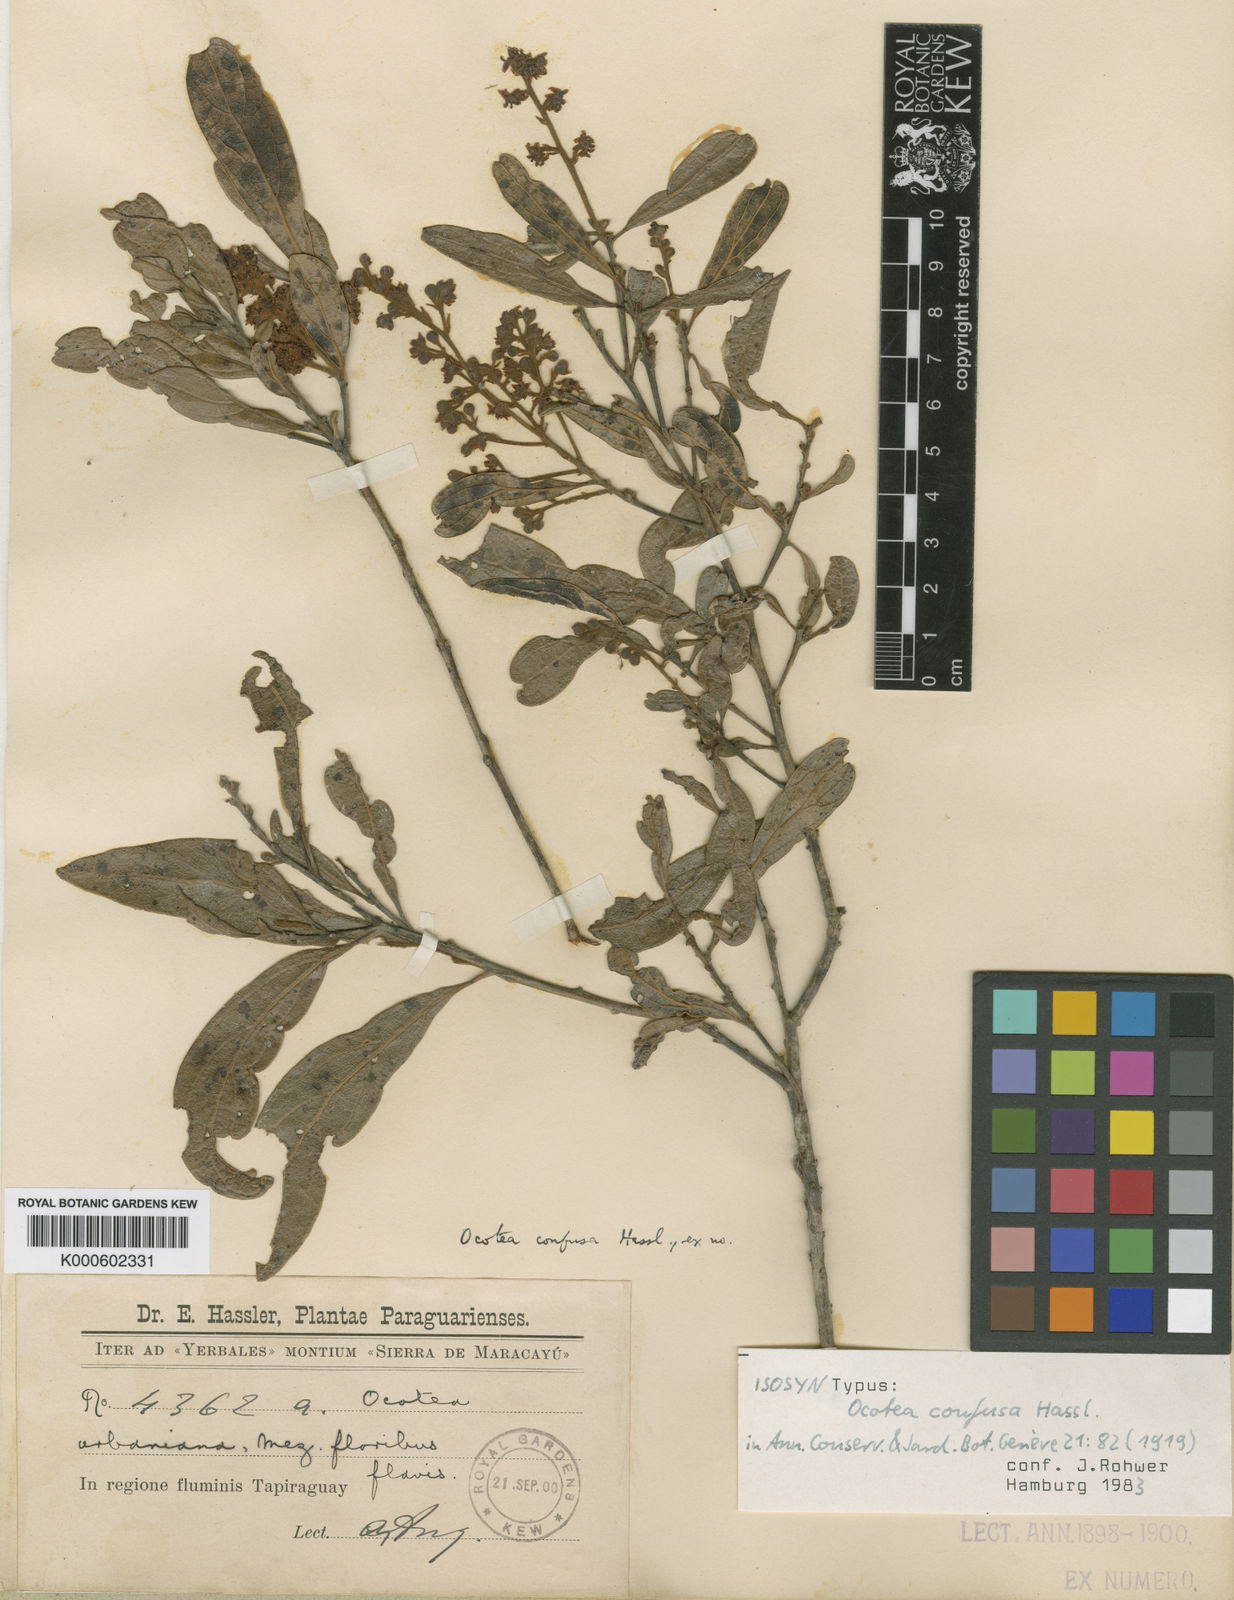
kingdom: Plantae
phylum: Tracheophyta
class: Magnoliopsida
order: Laurales
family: Lauraceae
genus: Ocotea
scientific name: Ocotea densiflora
